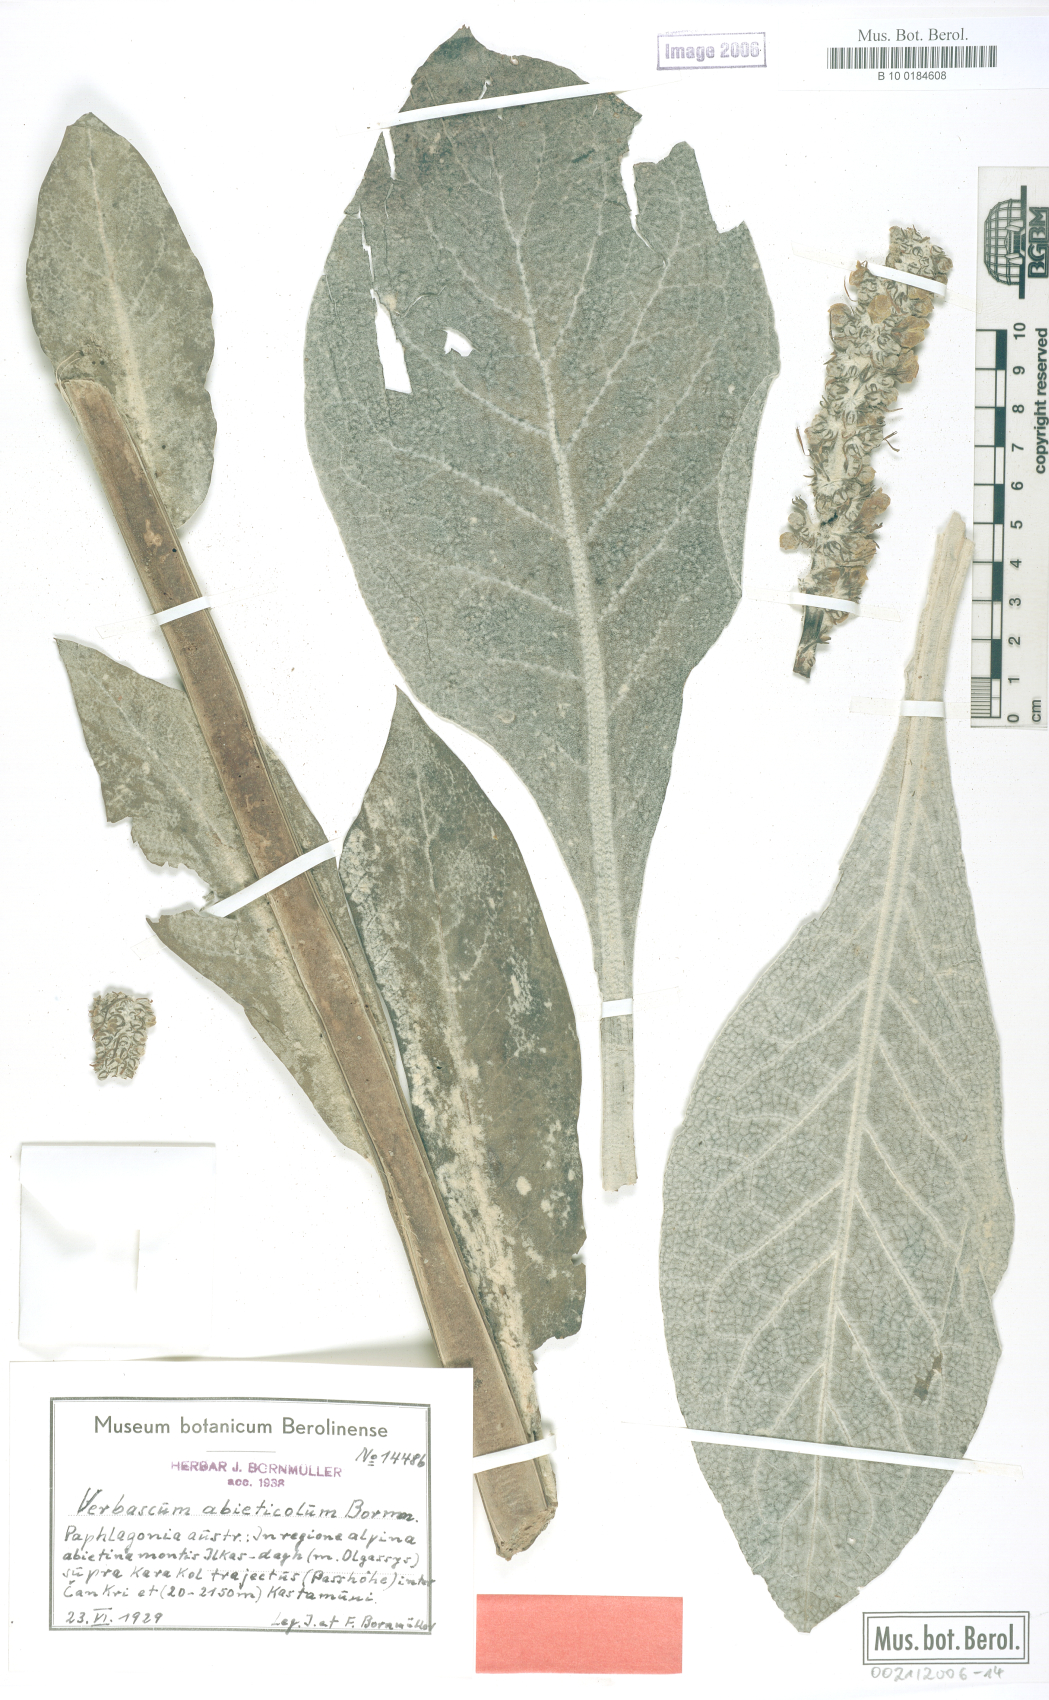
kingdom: Plantae
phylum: Tracheophyta
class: Magnoliopsida
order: Lamiales
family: Scrophulariaceae
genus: Verbascum
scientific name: Verbascum abieticola
